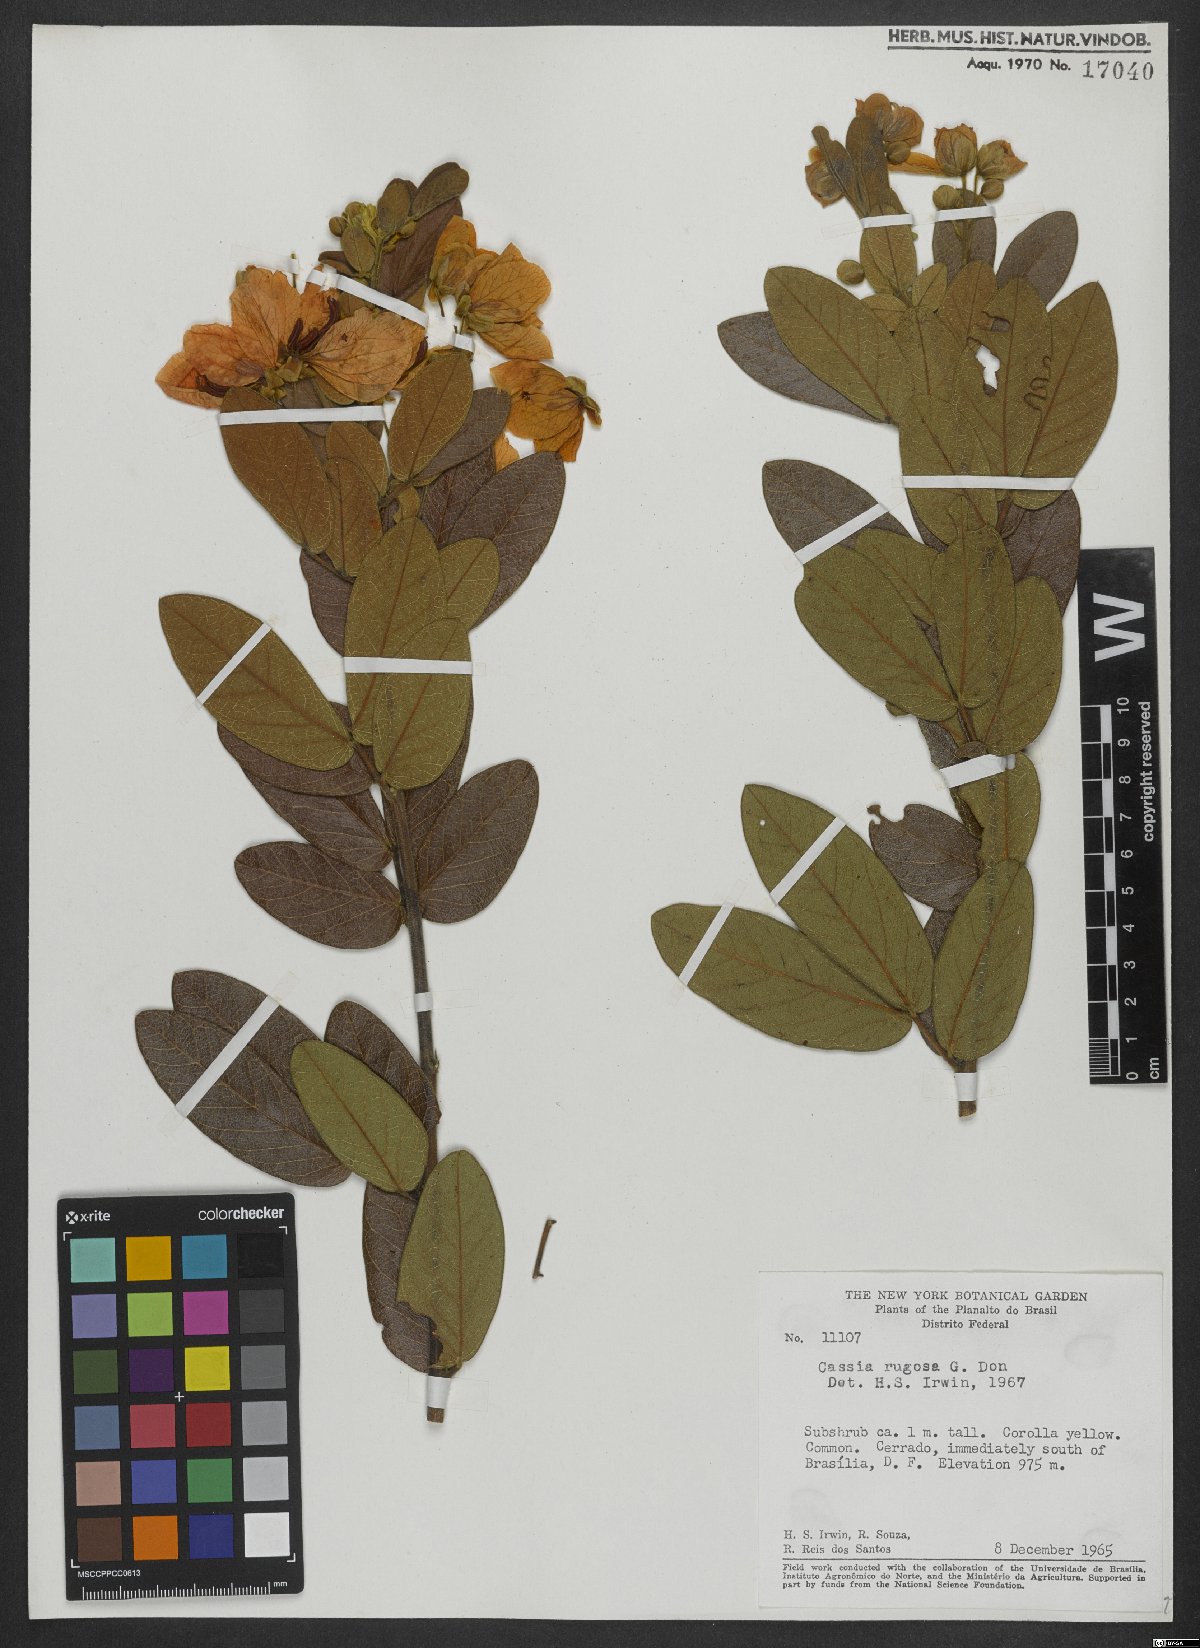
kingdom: Plantae
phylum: Tracheophyta
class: Magnoliopsida
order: Fabales
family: Fabaceae
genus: Senna
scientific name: Senna rugosa
